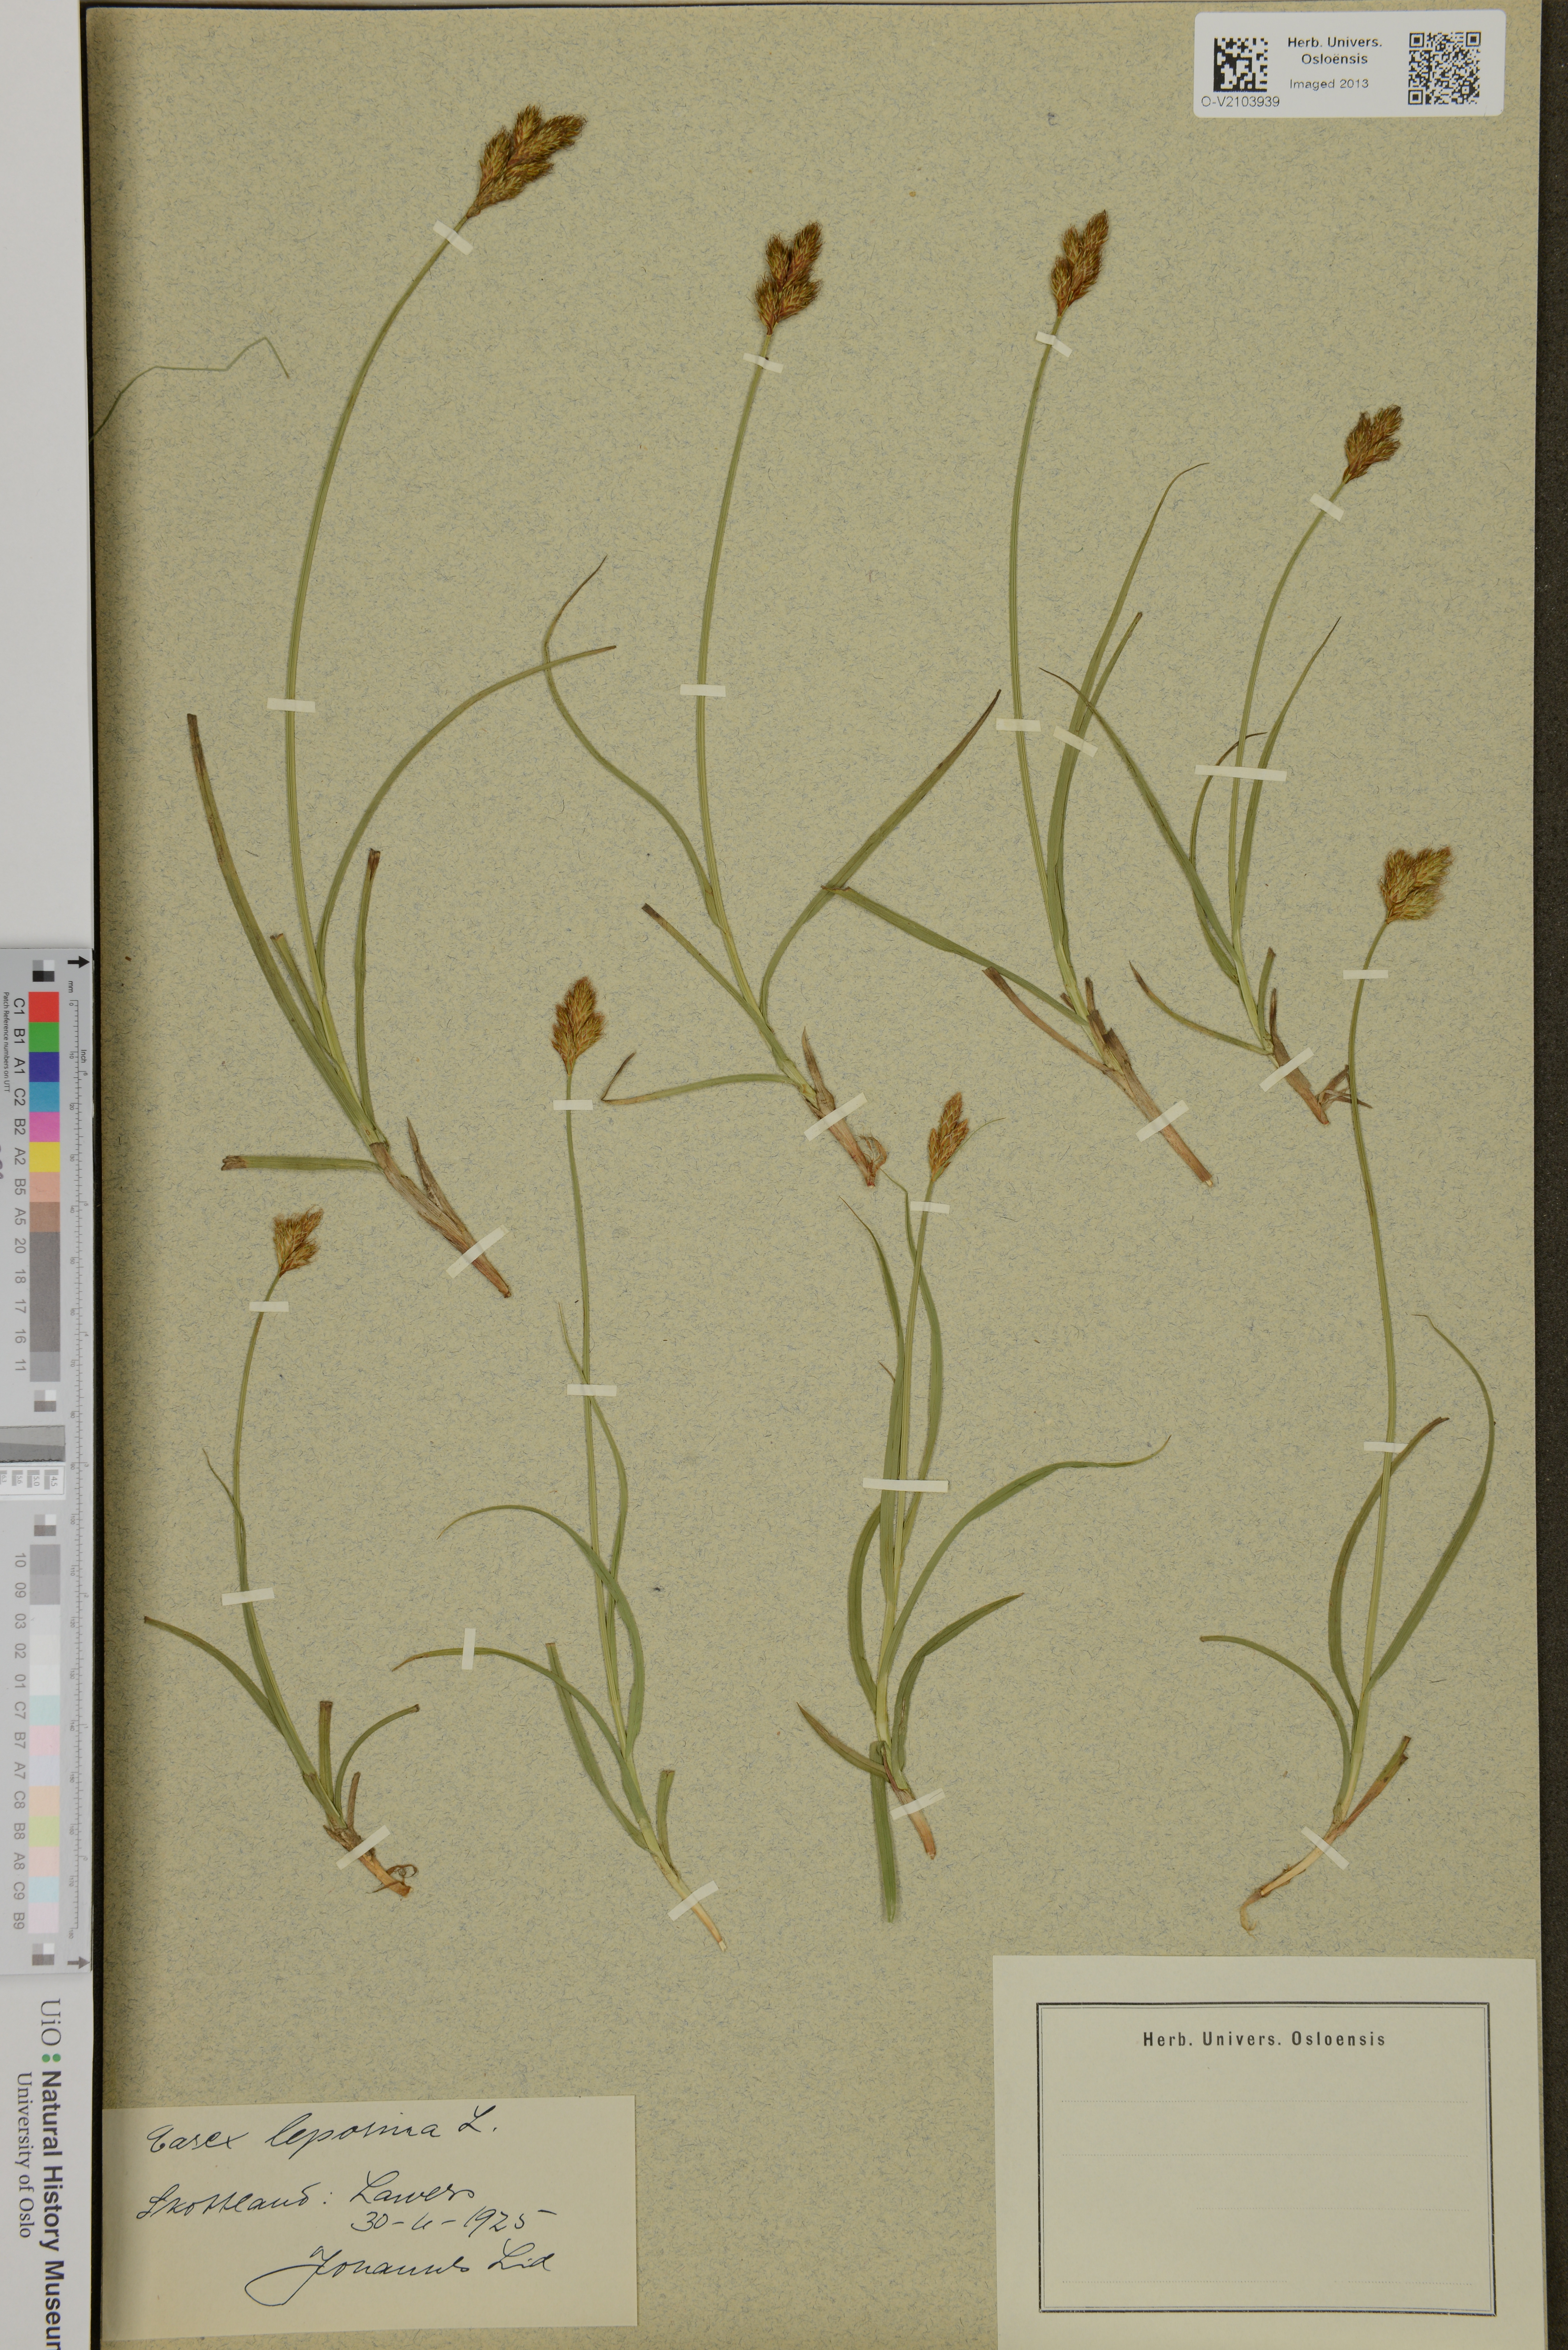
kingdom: Plantae
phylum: Tracheophyta
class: Liliopsida
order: Poales
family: Cyperaceae
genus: Carex
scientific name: Carex leporina
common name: Oval sedge
